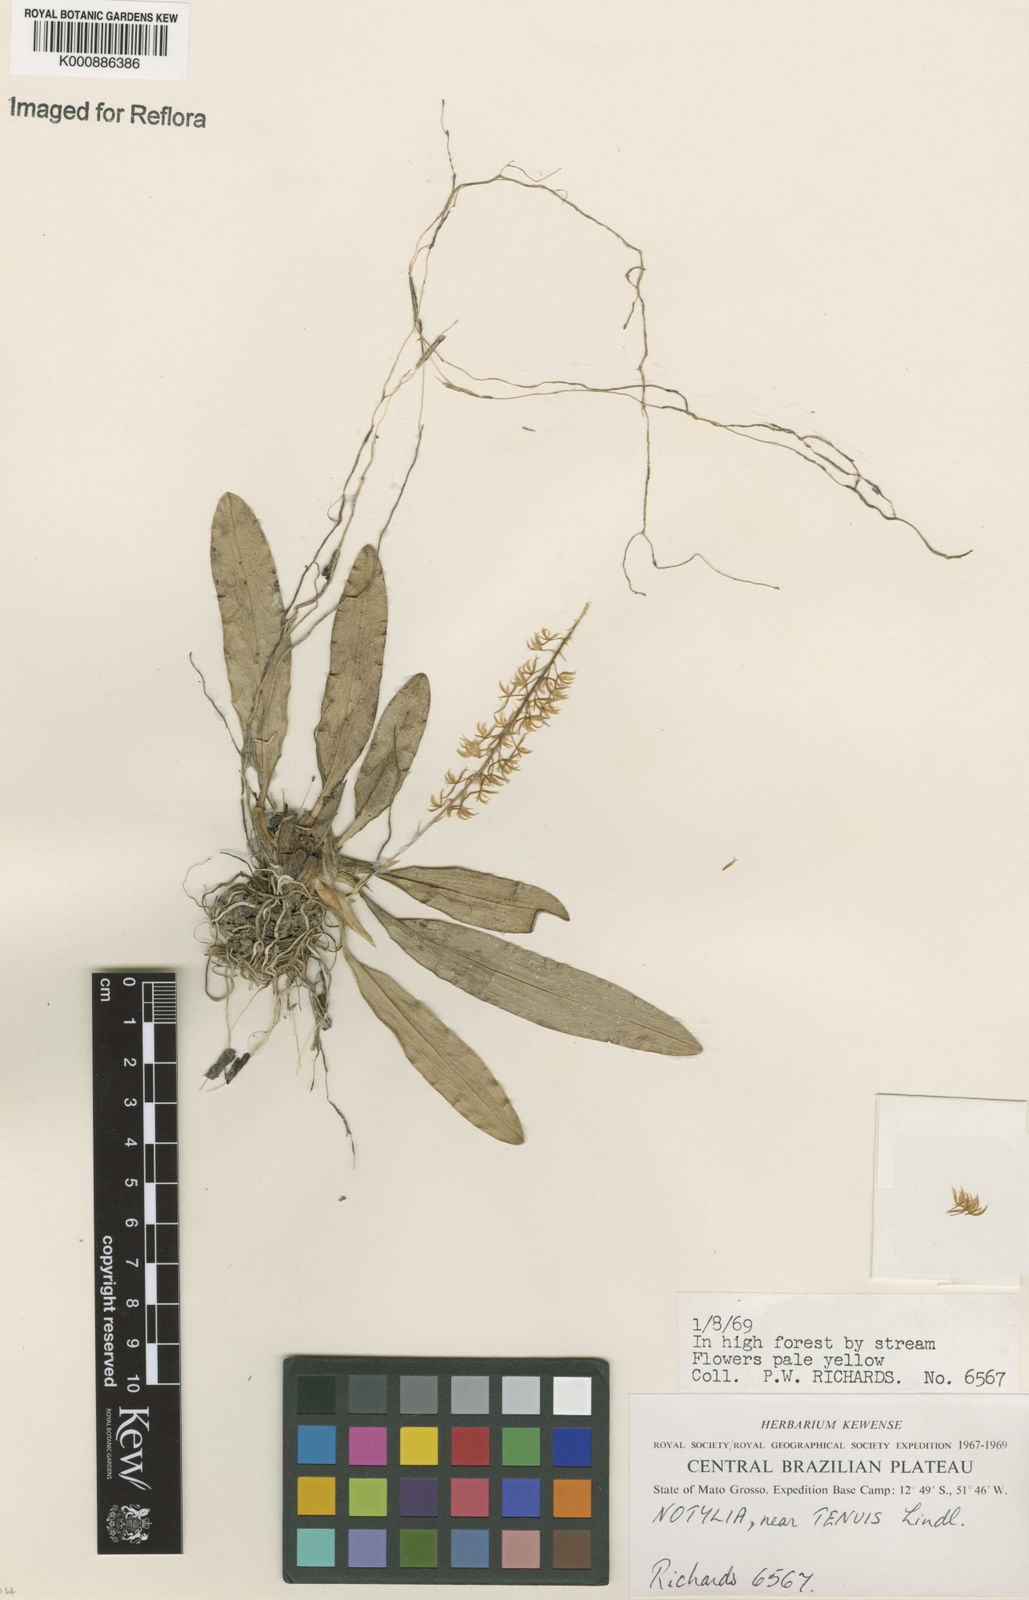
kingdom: Plantae
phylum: Tracheophyta
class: Liliopsida
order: Asparagales
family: Orchidaceae
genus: Notylia
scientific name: Notylia sagittifera
